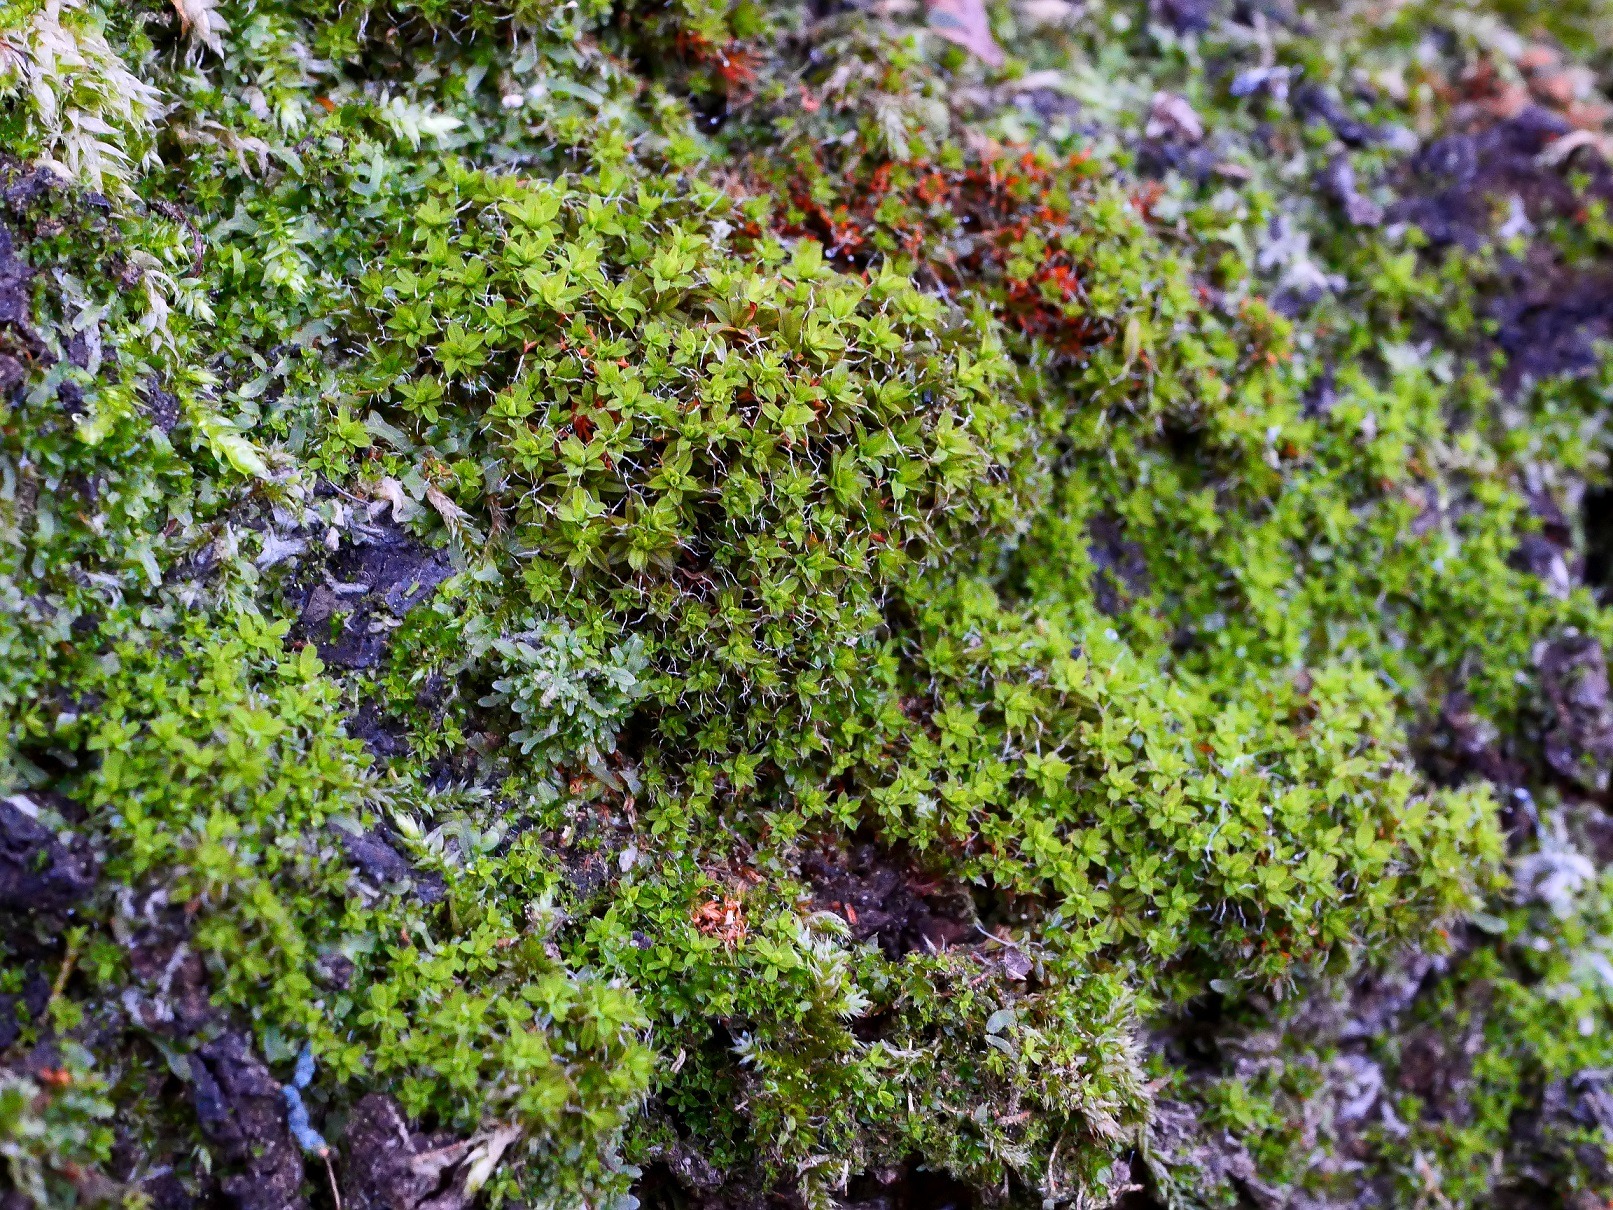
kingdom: Plantae
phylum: Bryophyta
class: Bryopsida
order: Pottiales
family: Pottiaceae
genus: Syntrichia
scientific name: Syntrichia virescens
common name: Grøn hårstjerne
